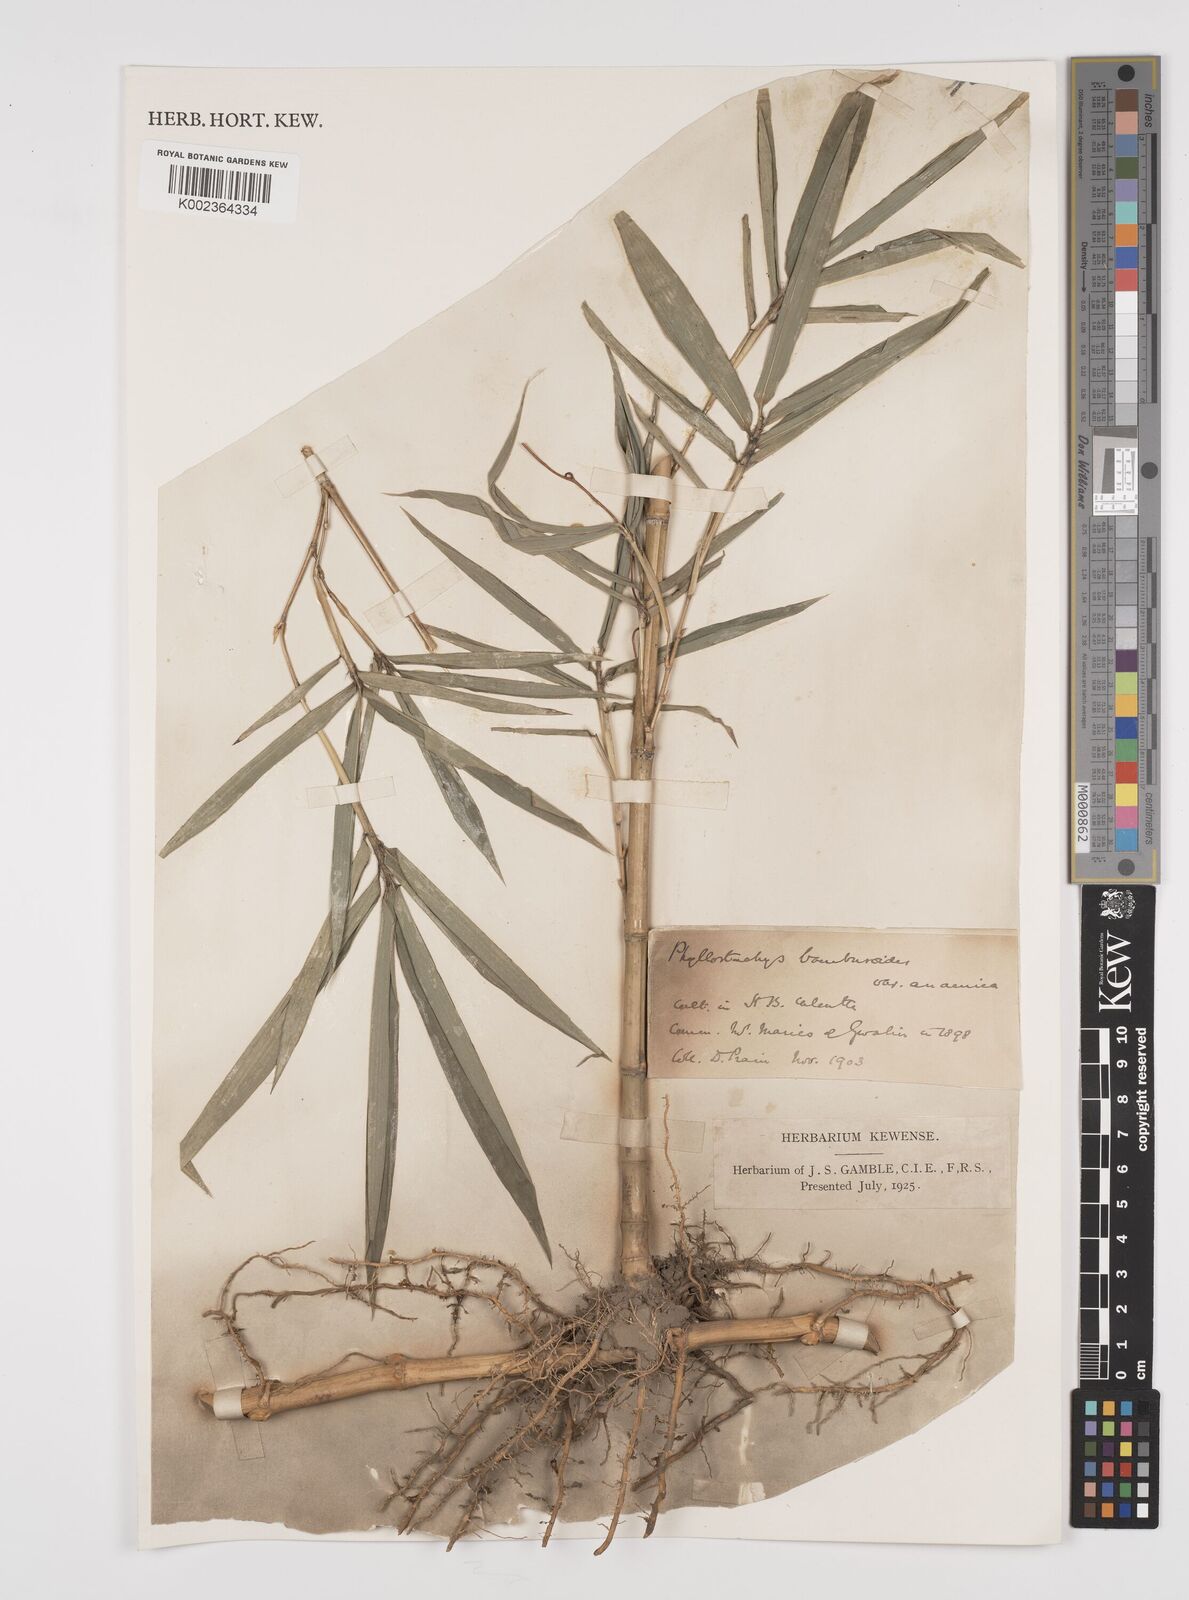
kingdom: Plantae
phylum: Tracheophyta
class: Liliopsida
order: Poales
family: Poaceae
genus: Phyllostachys
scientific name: Phyllostachys reticulata
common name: Bamboo
